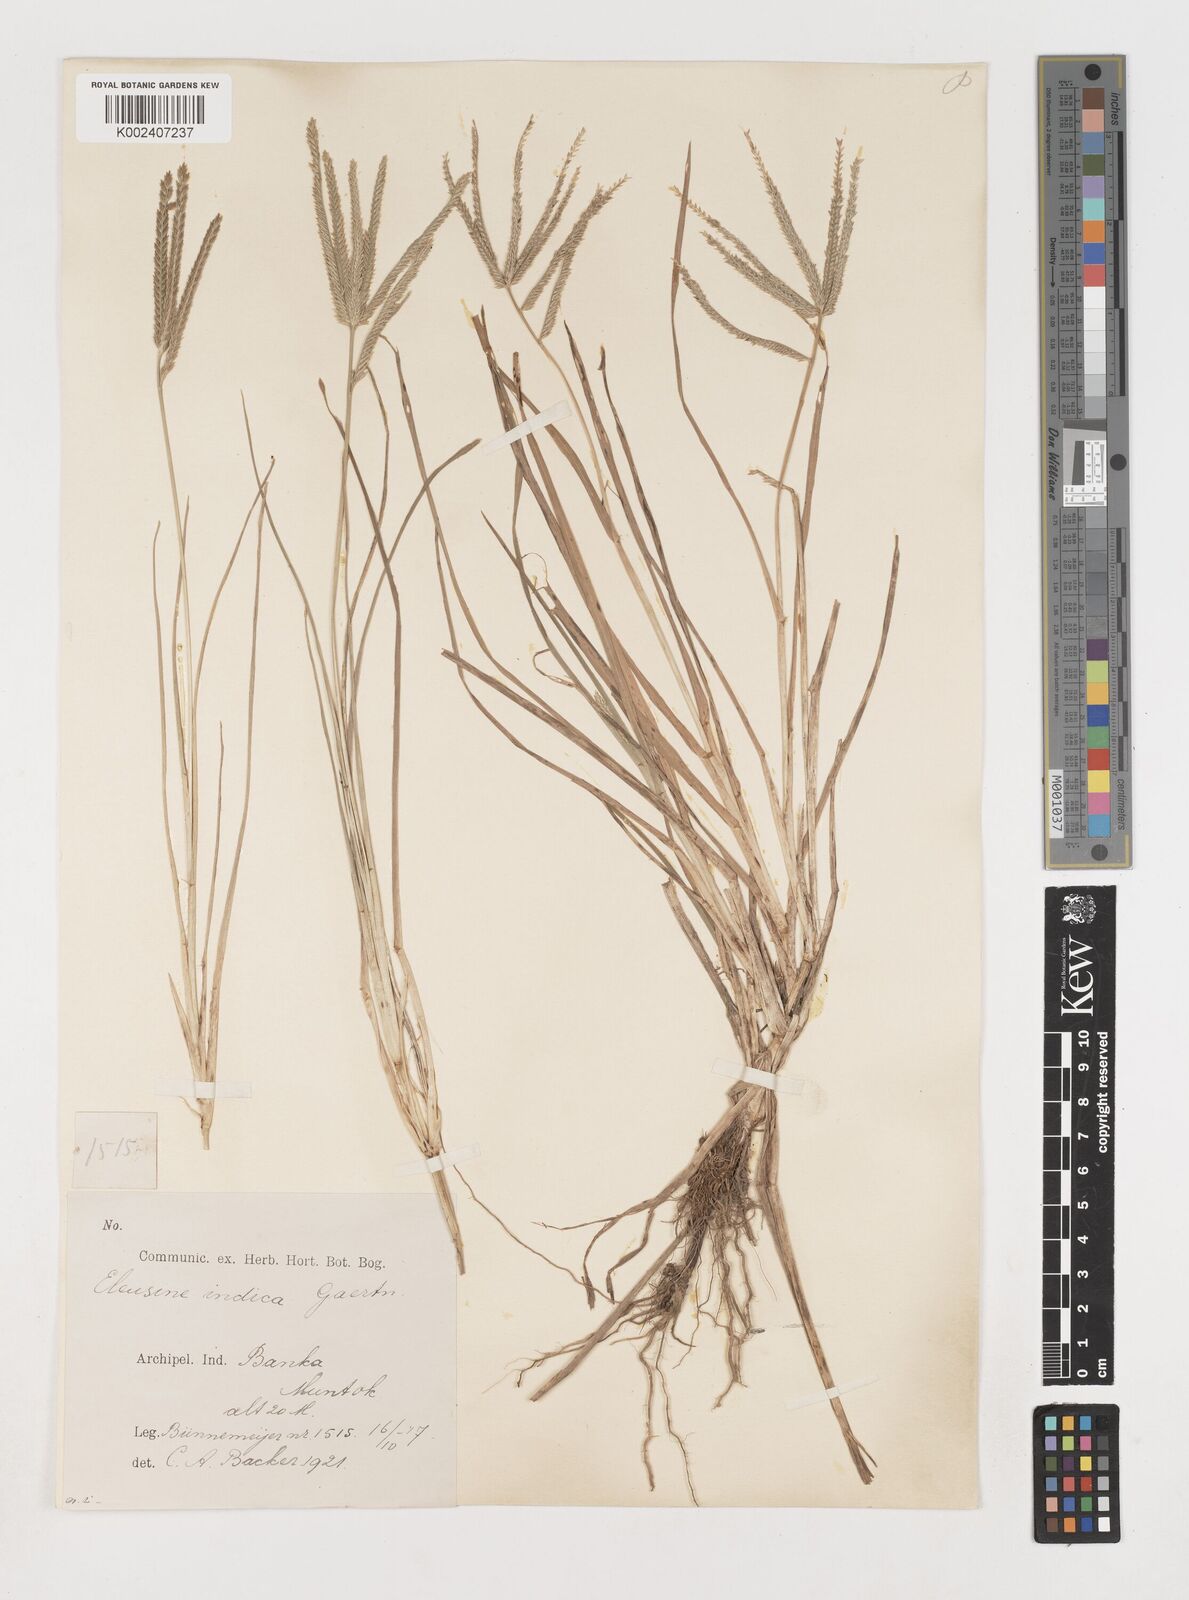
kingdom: Plantae
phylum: Tracheophyta
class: Liliopsida
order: Poales
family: Poaceae
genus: Eleusine
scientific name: Eleusine indica
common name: Yard-grass
